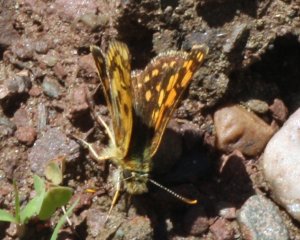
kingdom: Animalia
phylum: Arthropoda
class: Insecta
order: Lepidoptera
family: Hesperiidae
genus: Carterocephalus
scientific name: Carterocephalus palaemon
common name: Chequered Skipper
